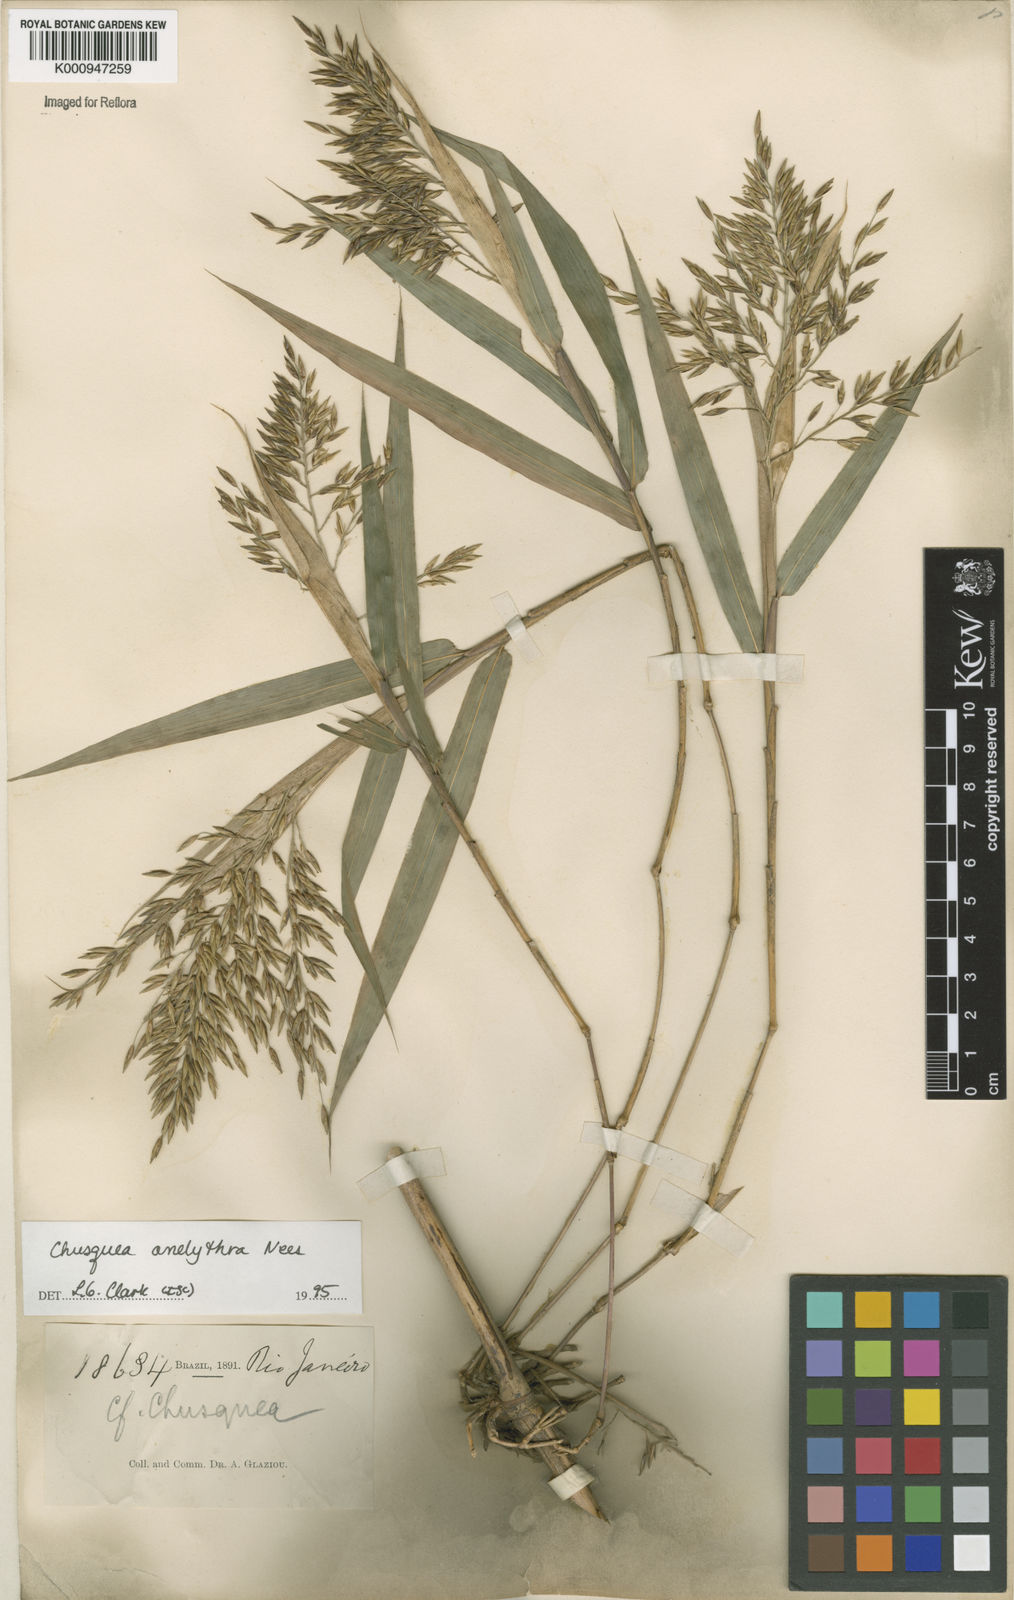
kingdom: Plantae
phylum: Tracheophyta
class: Liliopsida
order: Poales
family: Poaceae
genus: Chusquea
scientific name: Chusquea anelythra
